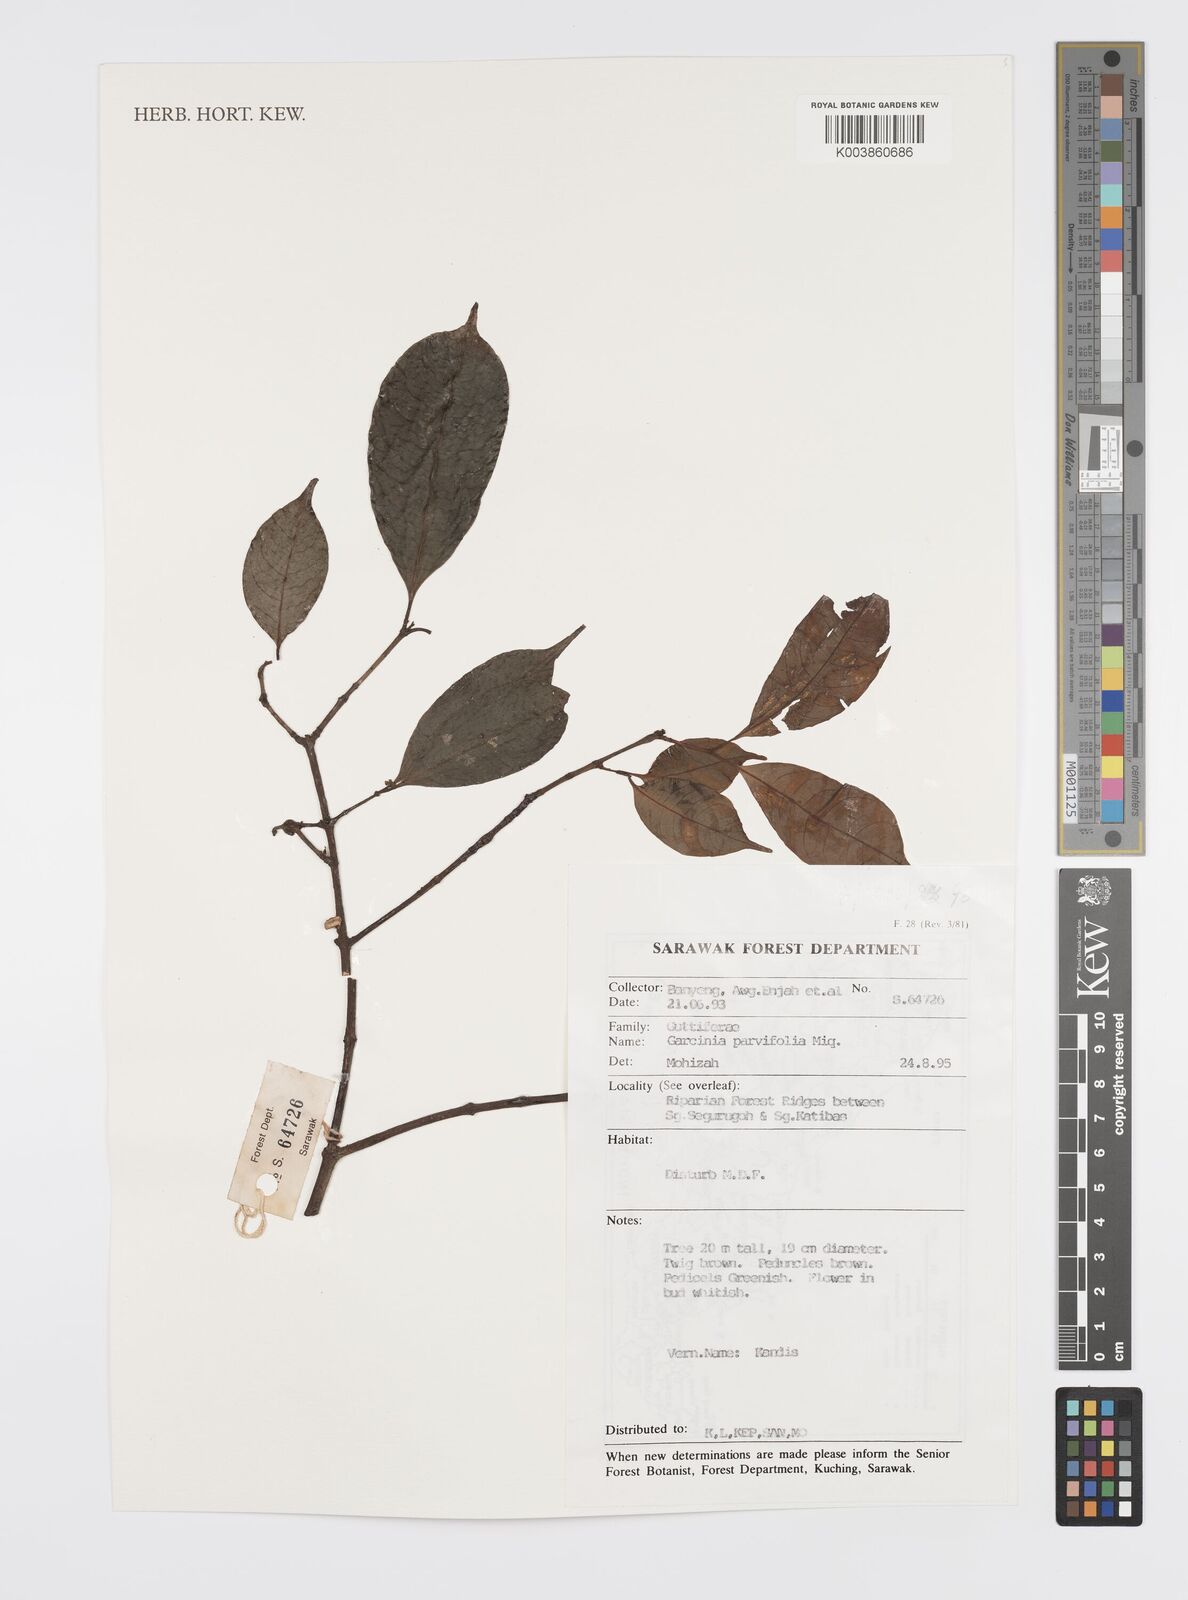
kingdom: Plantae
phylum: Tracheophyta
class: Magnoliopsida
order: Malpighiales
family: Clusiaceae
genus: Garcinia
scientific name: Garcinia parvifolia
